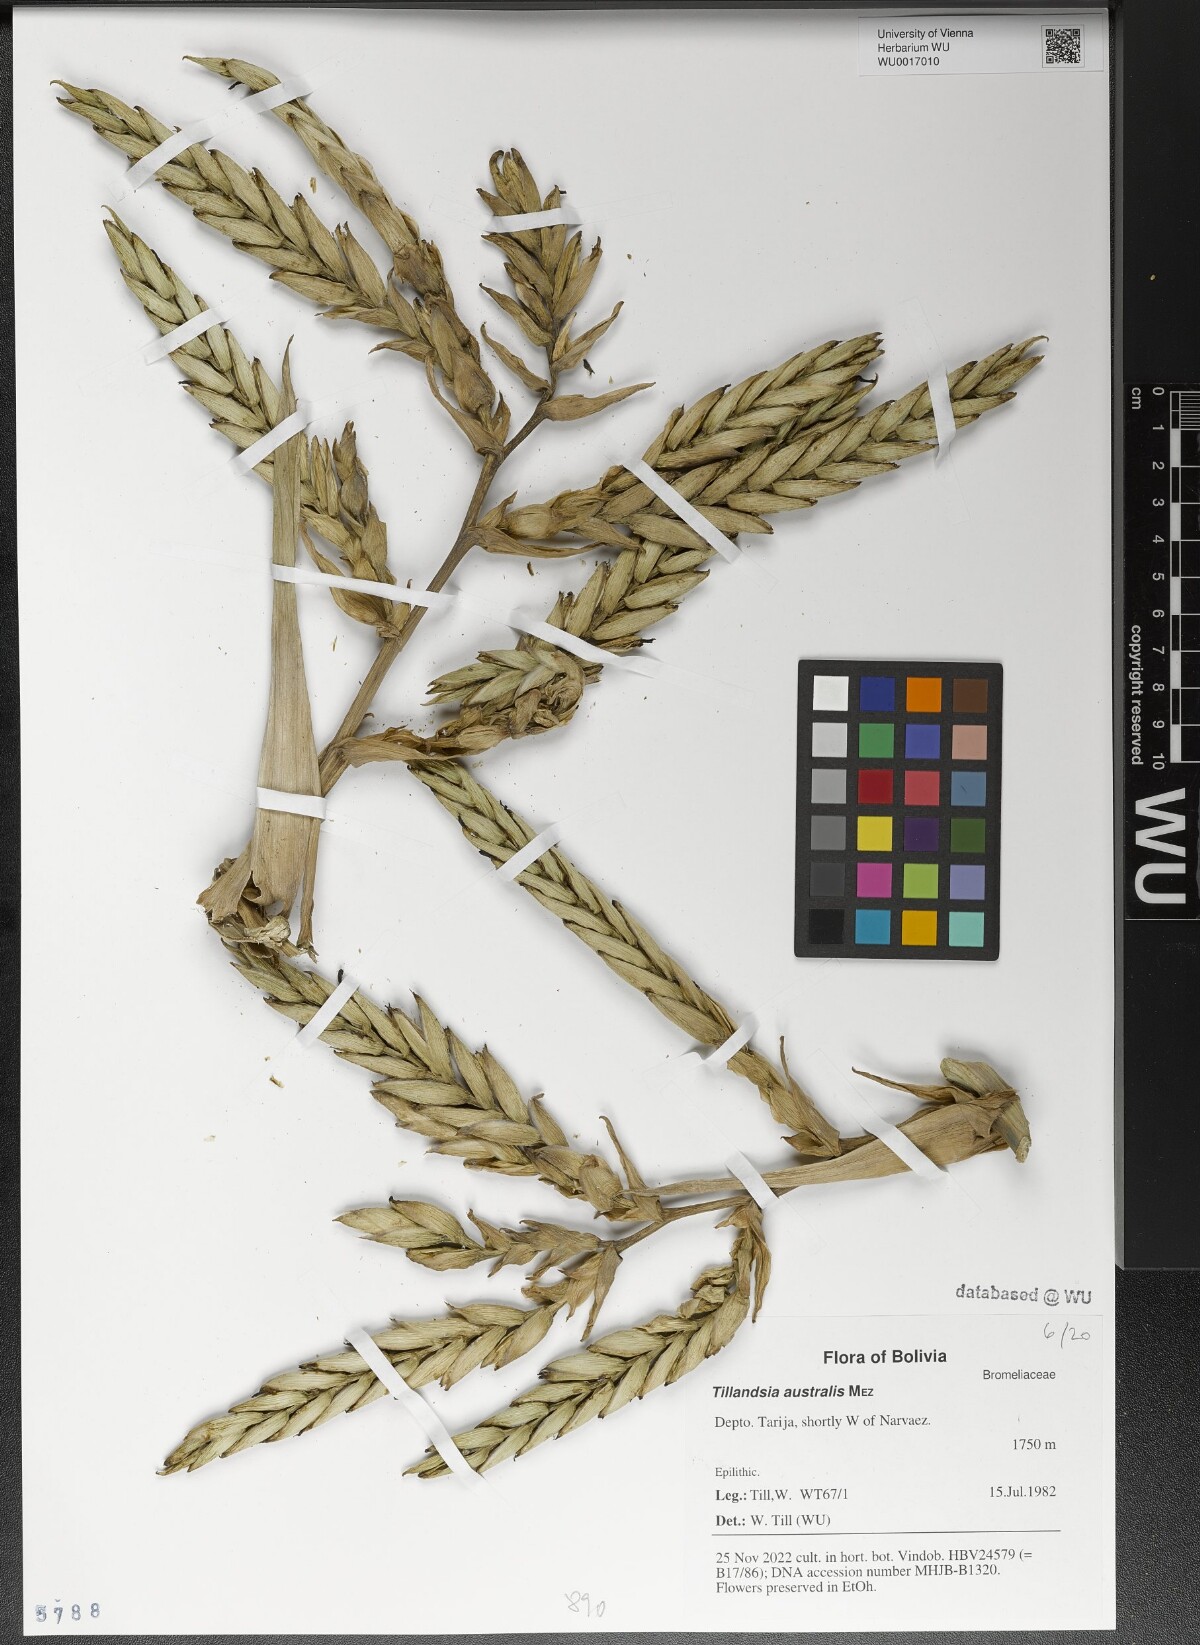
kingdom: Plantae
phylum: Tracheophyta
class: Liliopsida
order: Poales
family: Bromeliaceae
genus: Tillandsia
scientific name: Tillandsia australis
